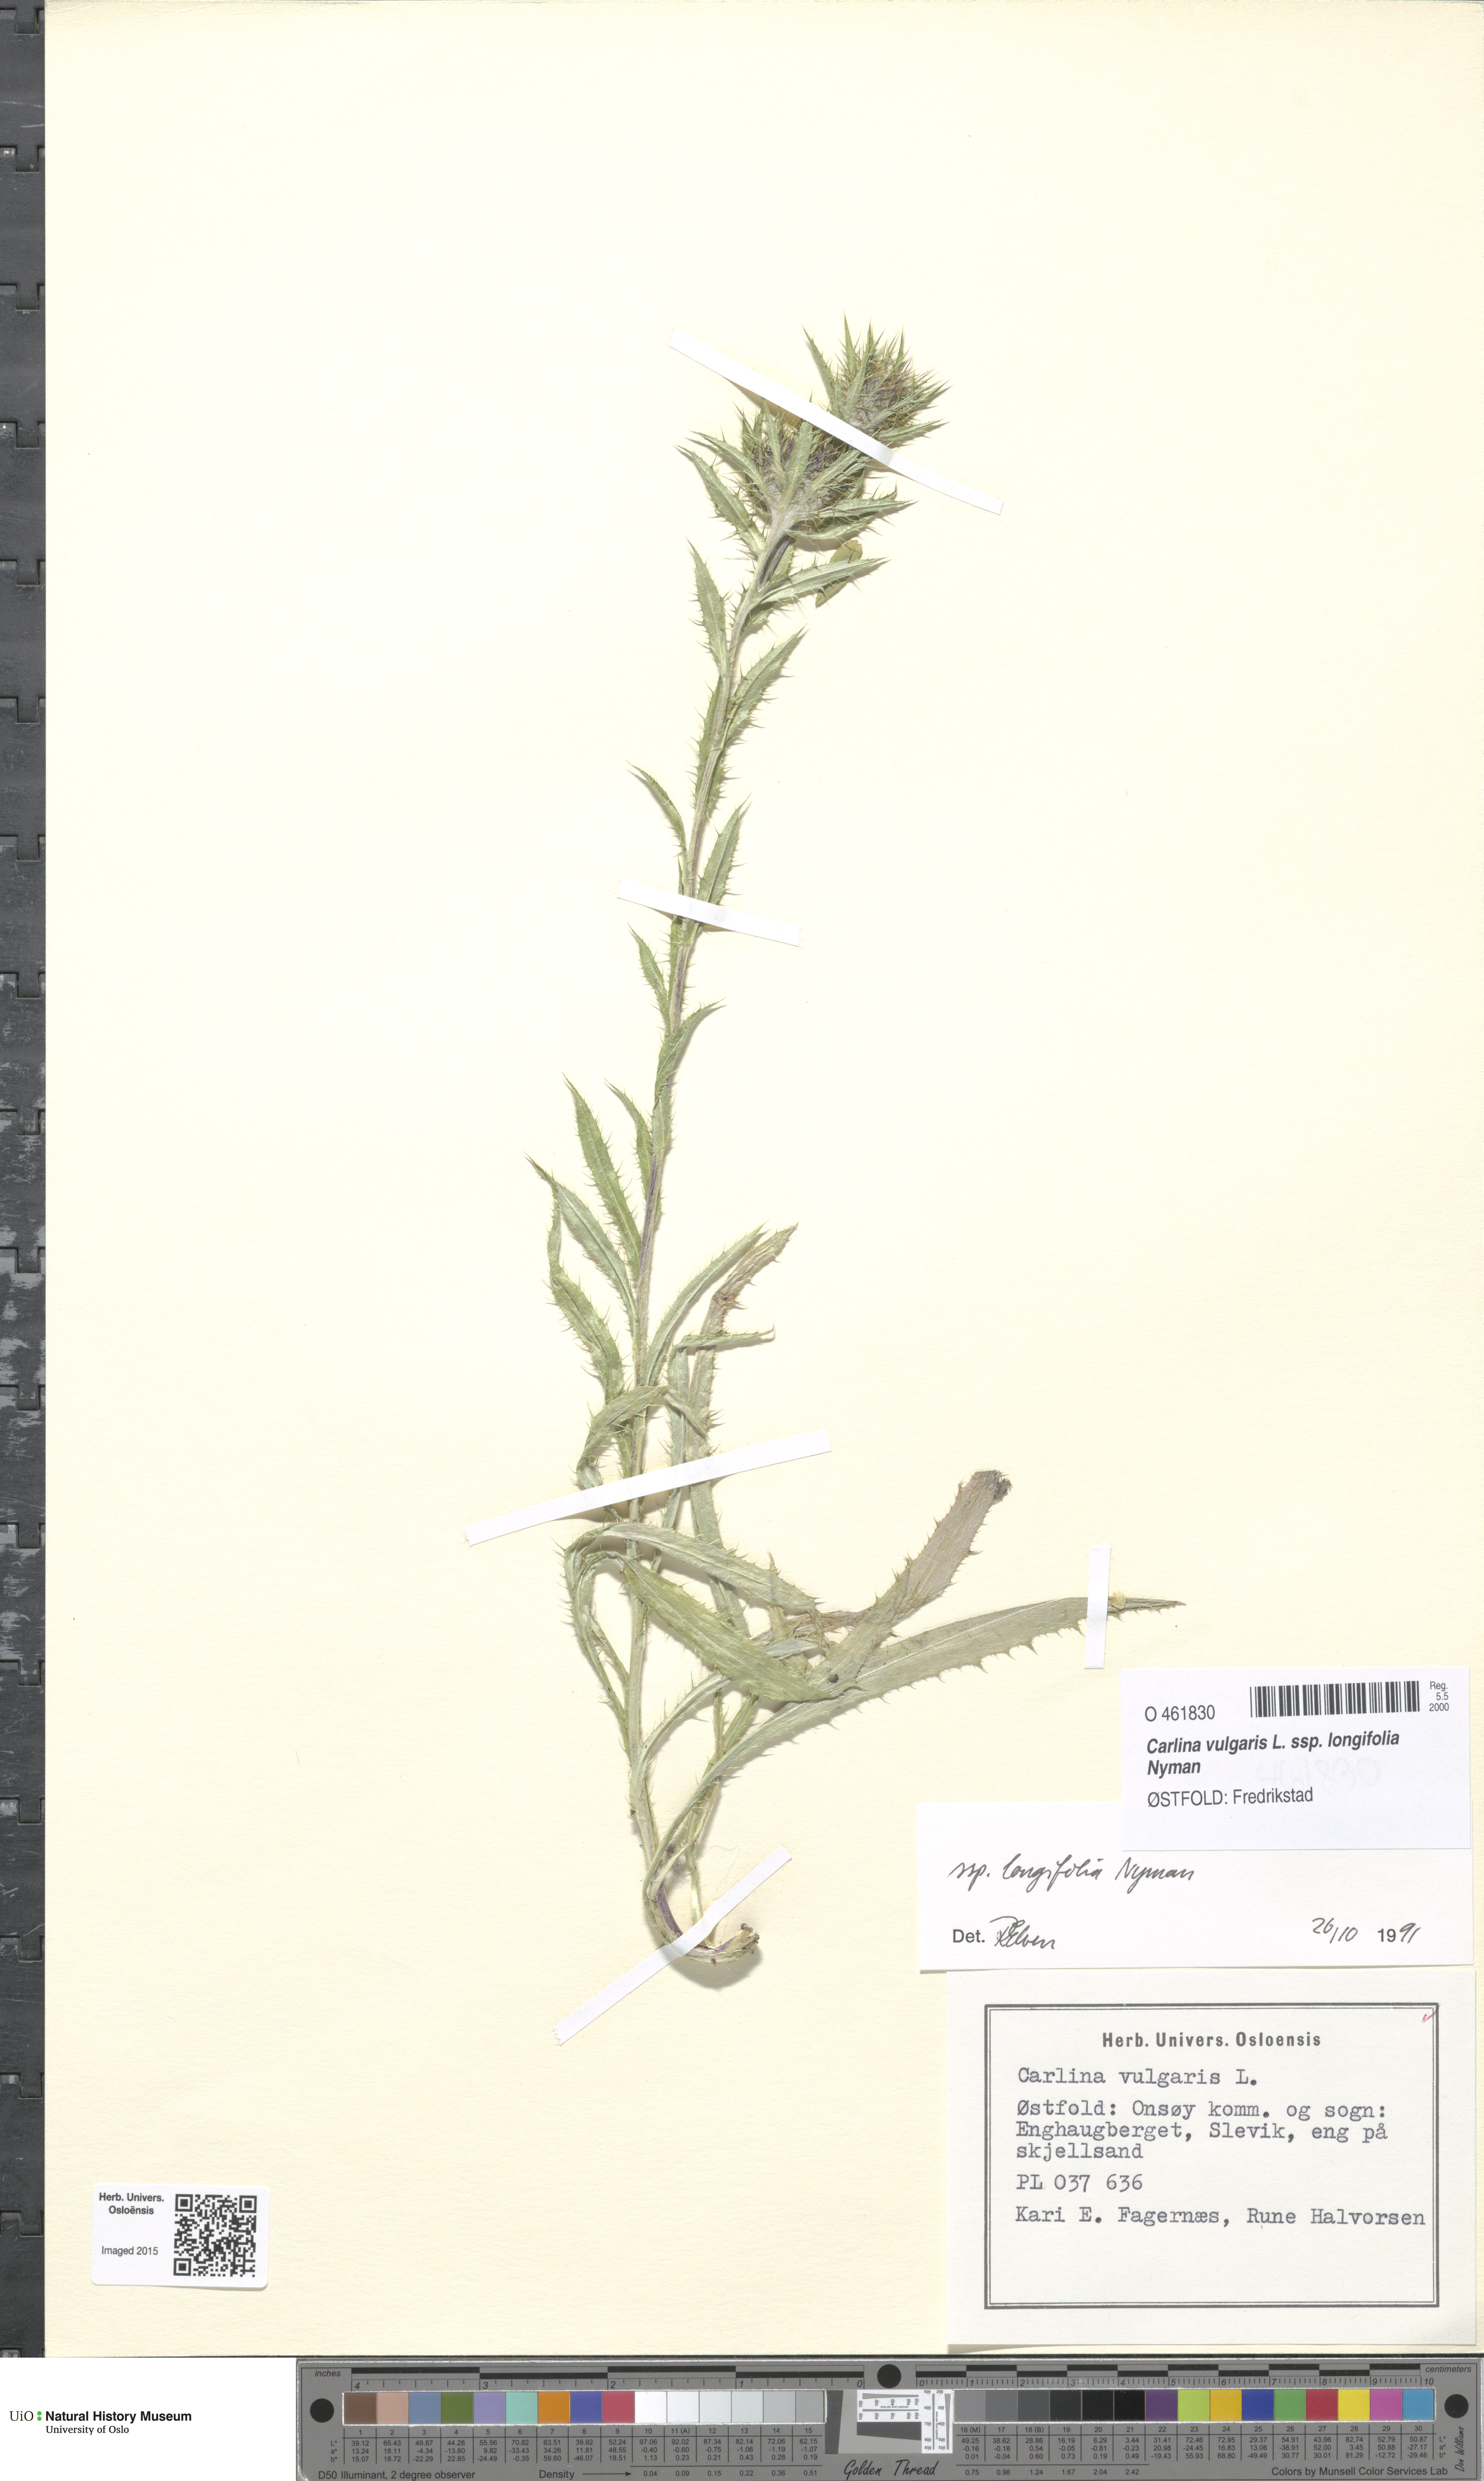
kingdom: Plantae
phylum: Tracheophyta
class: Magnoliopsida
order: Asterales
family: Asteraceae
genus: Carlina
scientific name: Carlina biebersteinii
